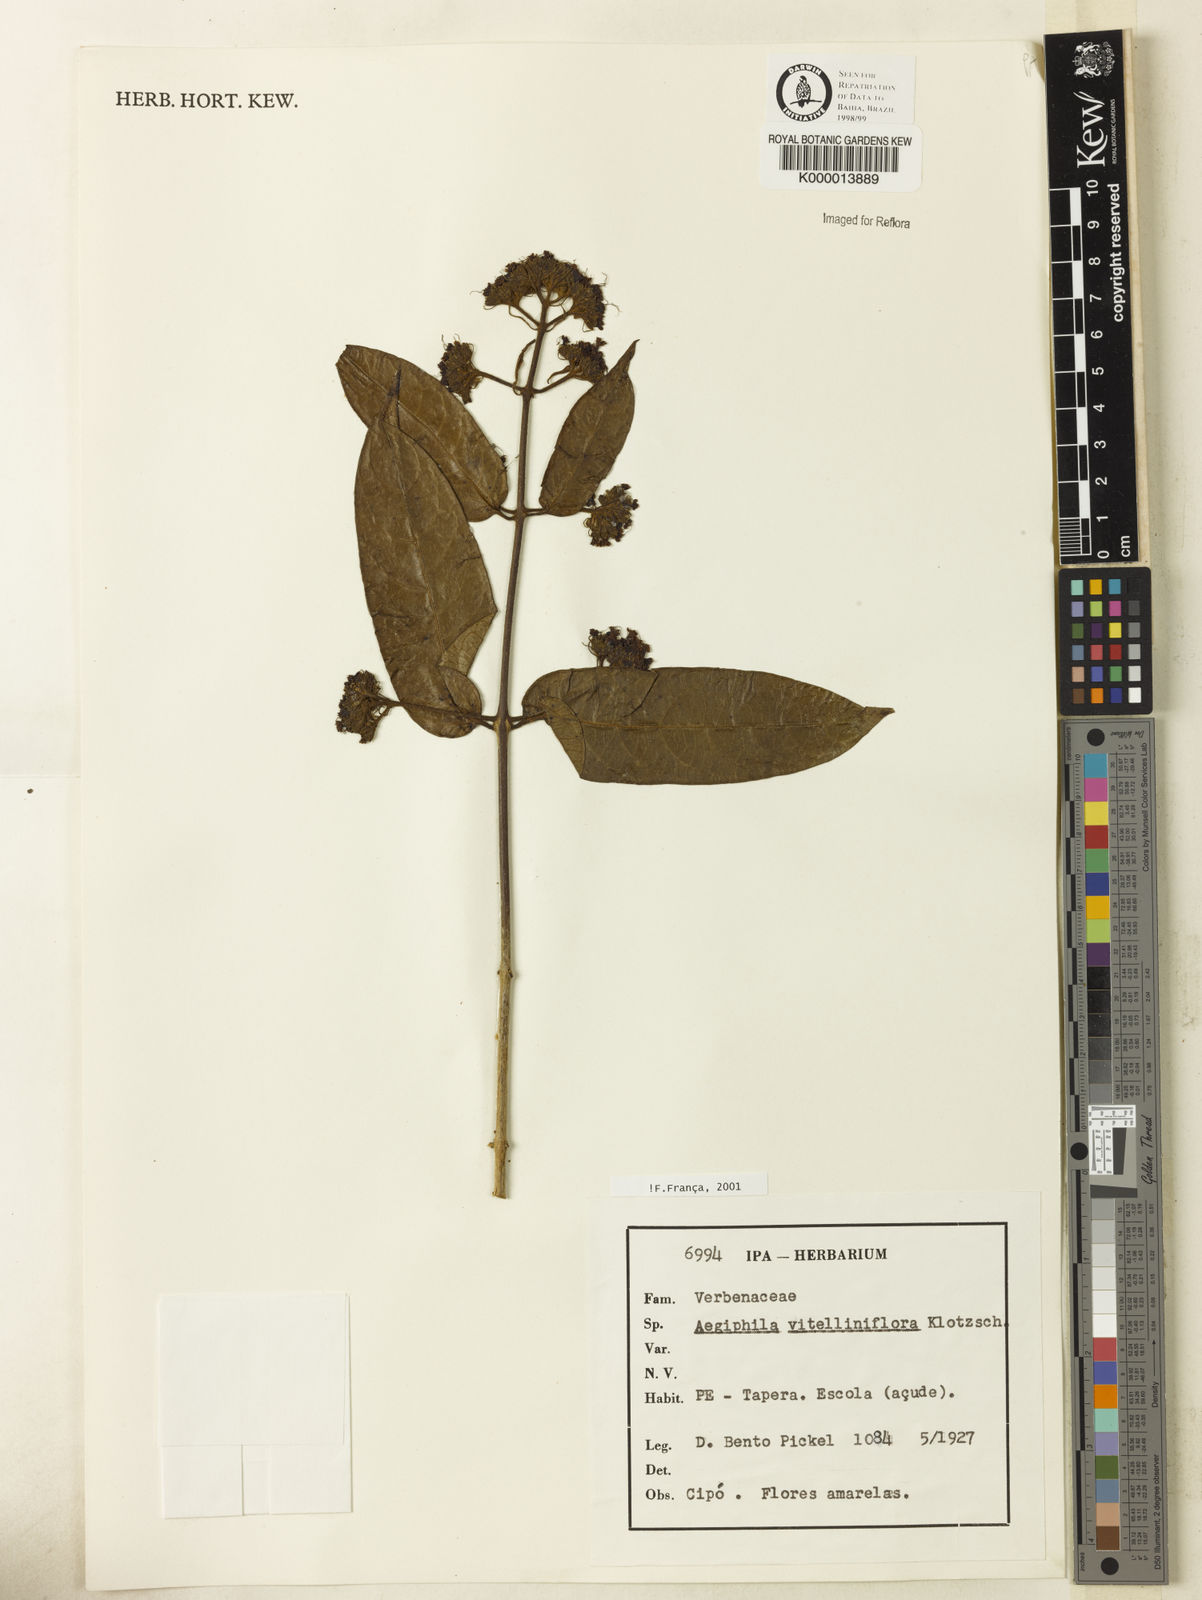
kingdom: Plantae
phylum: Tracheophyta
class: Magnoliopsida
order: Lamiales
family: Lamiaceae
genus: Aegiphila
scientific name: Aegiphila vitelliniflora
